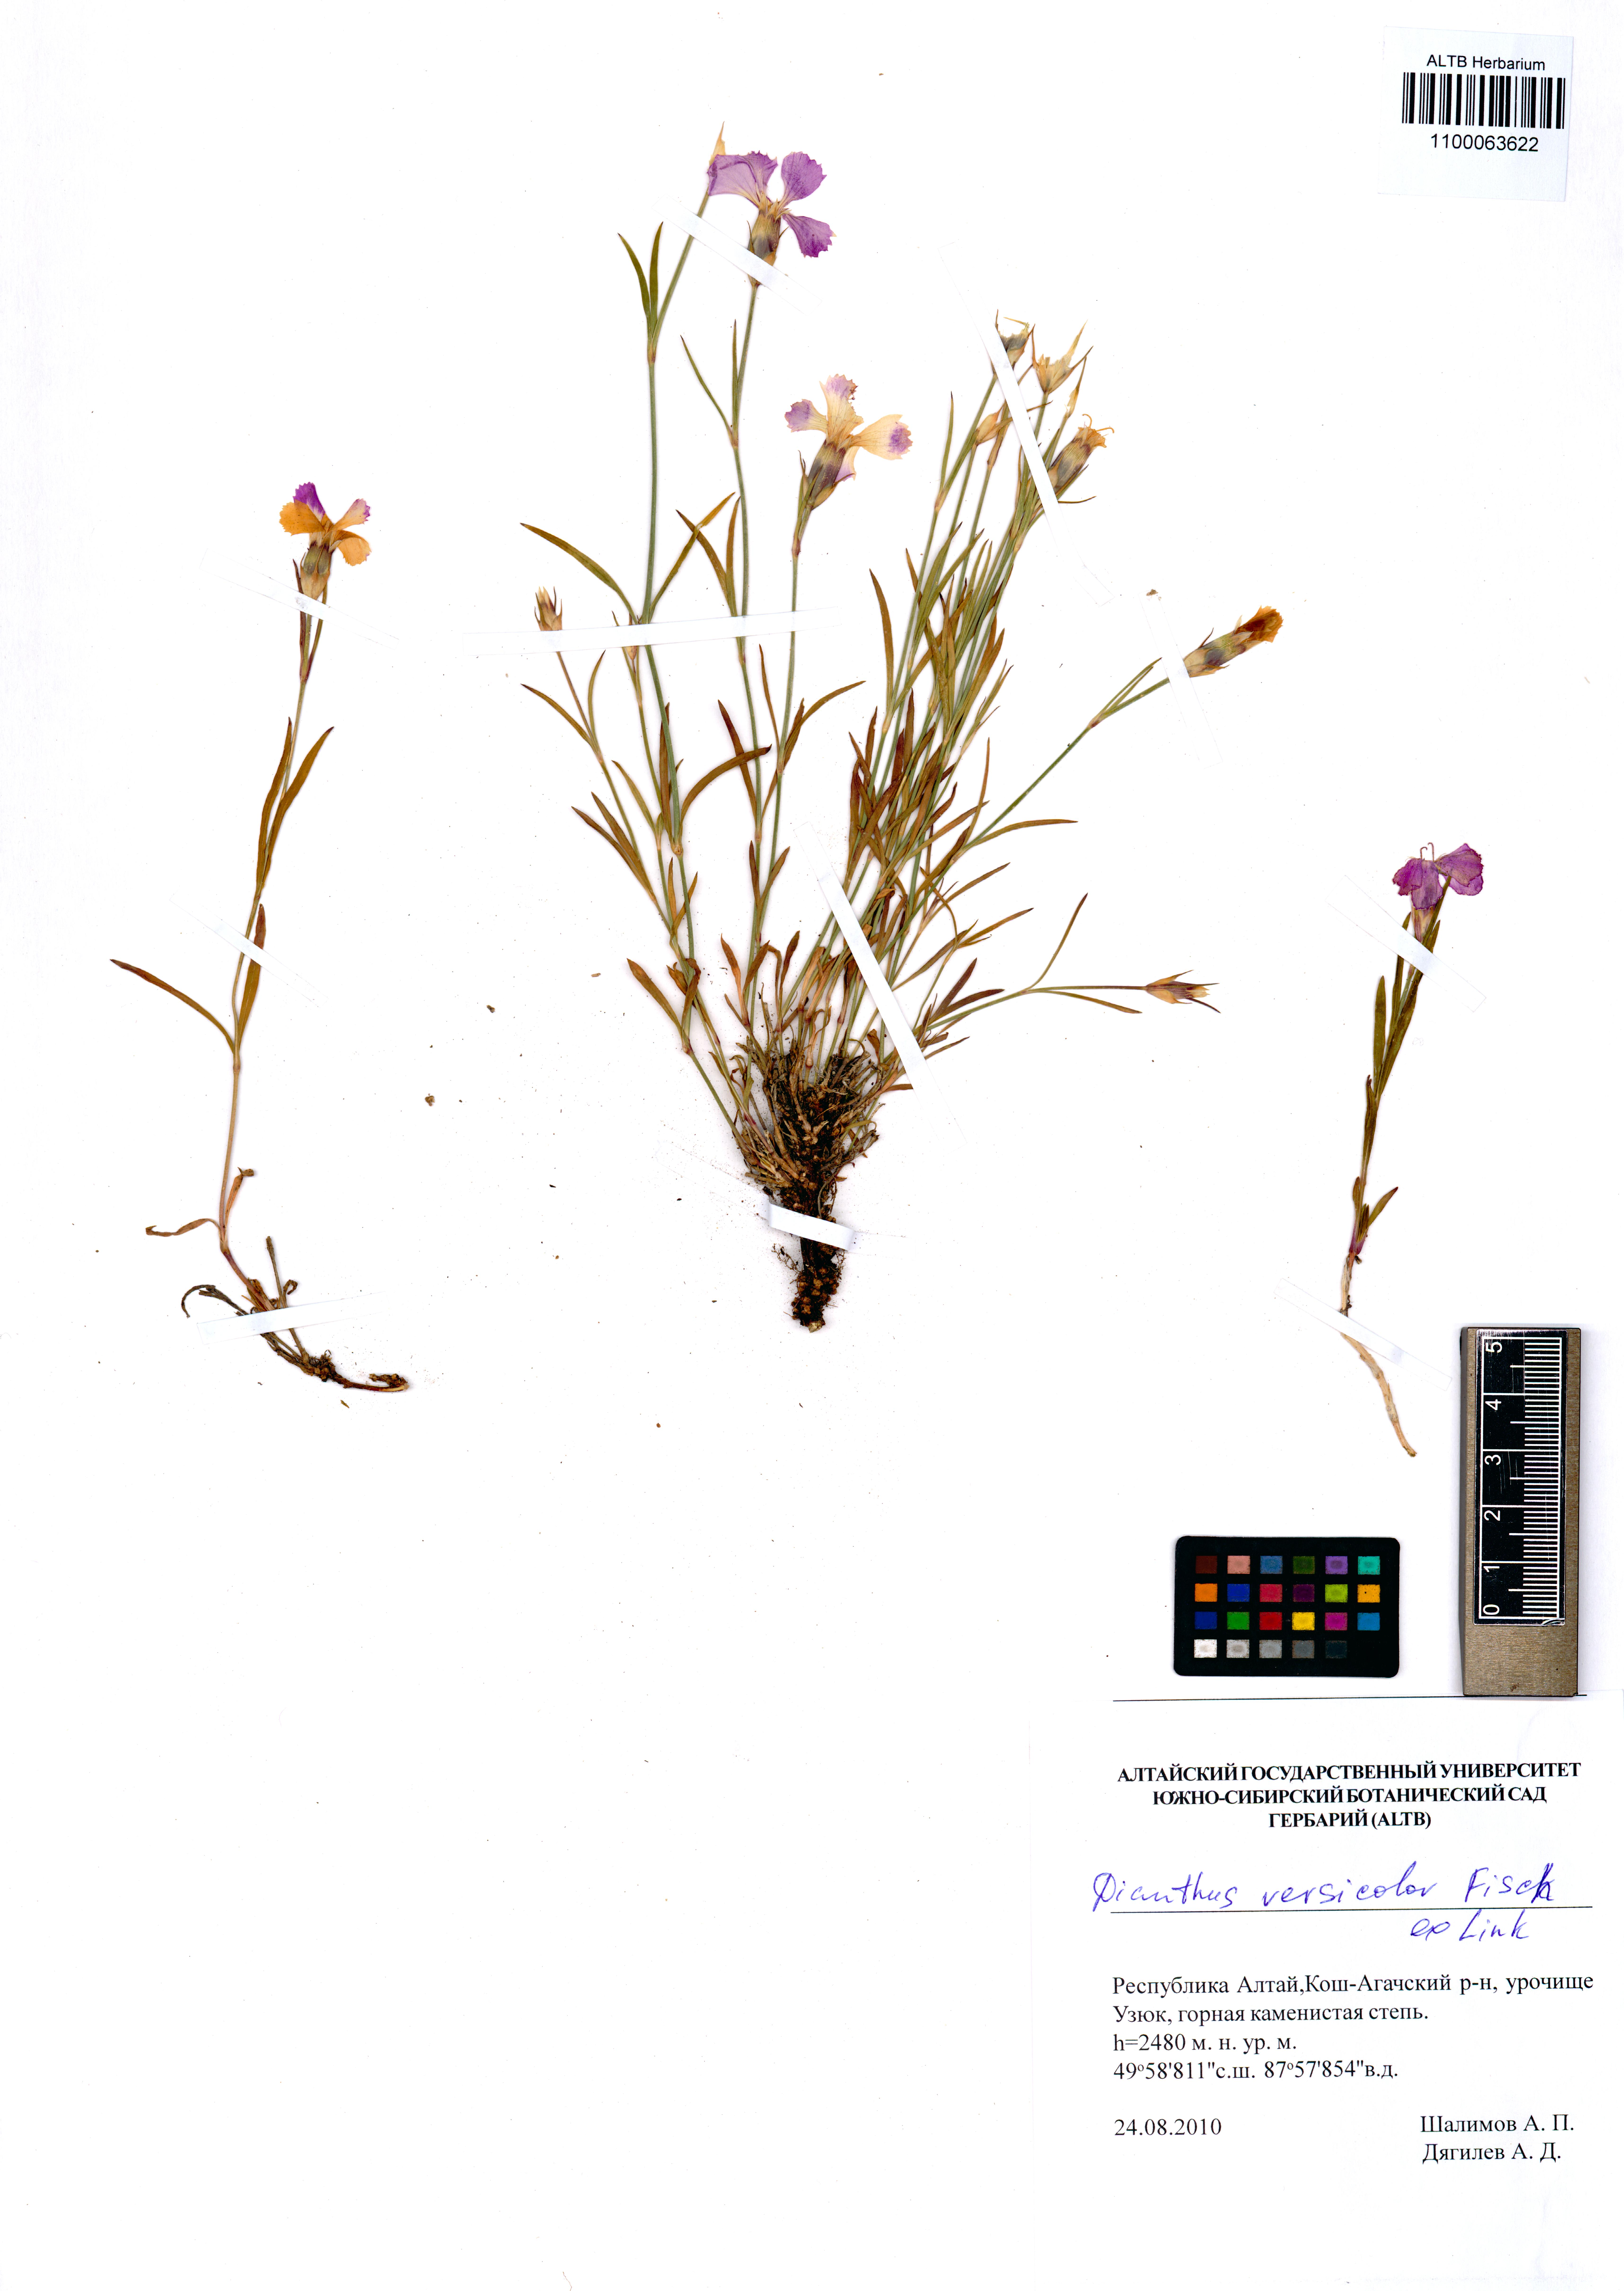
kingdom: Plantae
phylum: Tracheophyta
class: Magnoliopsida
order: Caryophyllales
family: Caryophyllaceae
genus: Dianthus
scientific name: Dianthus chinensis
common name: Rainbow pink
